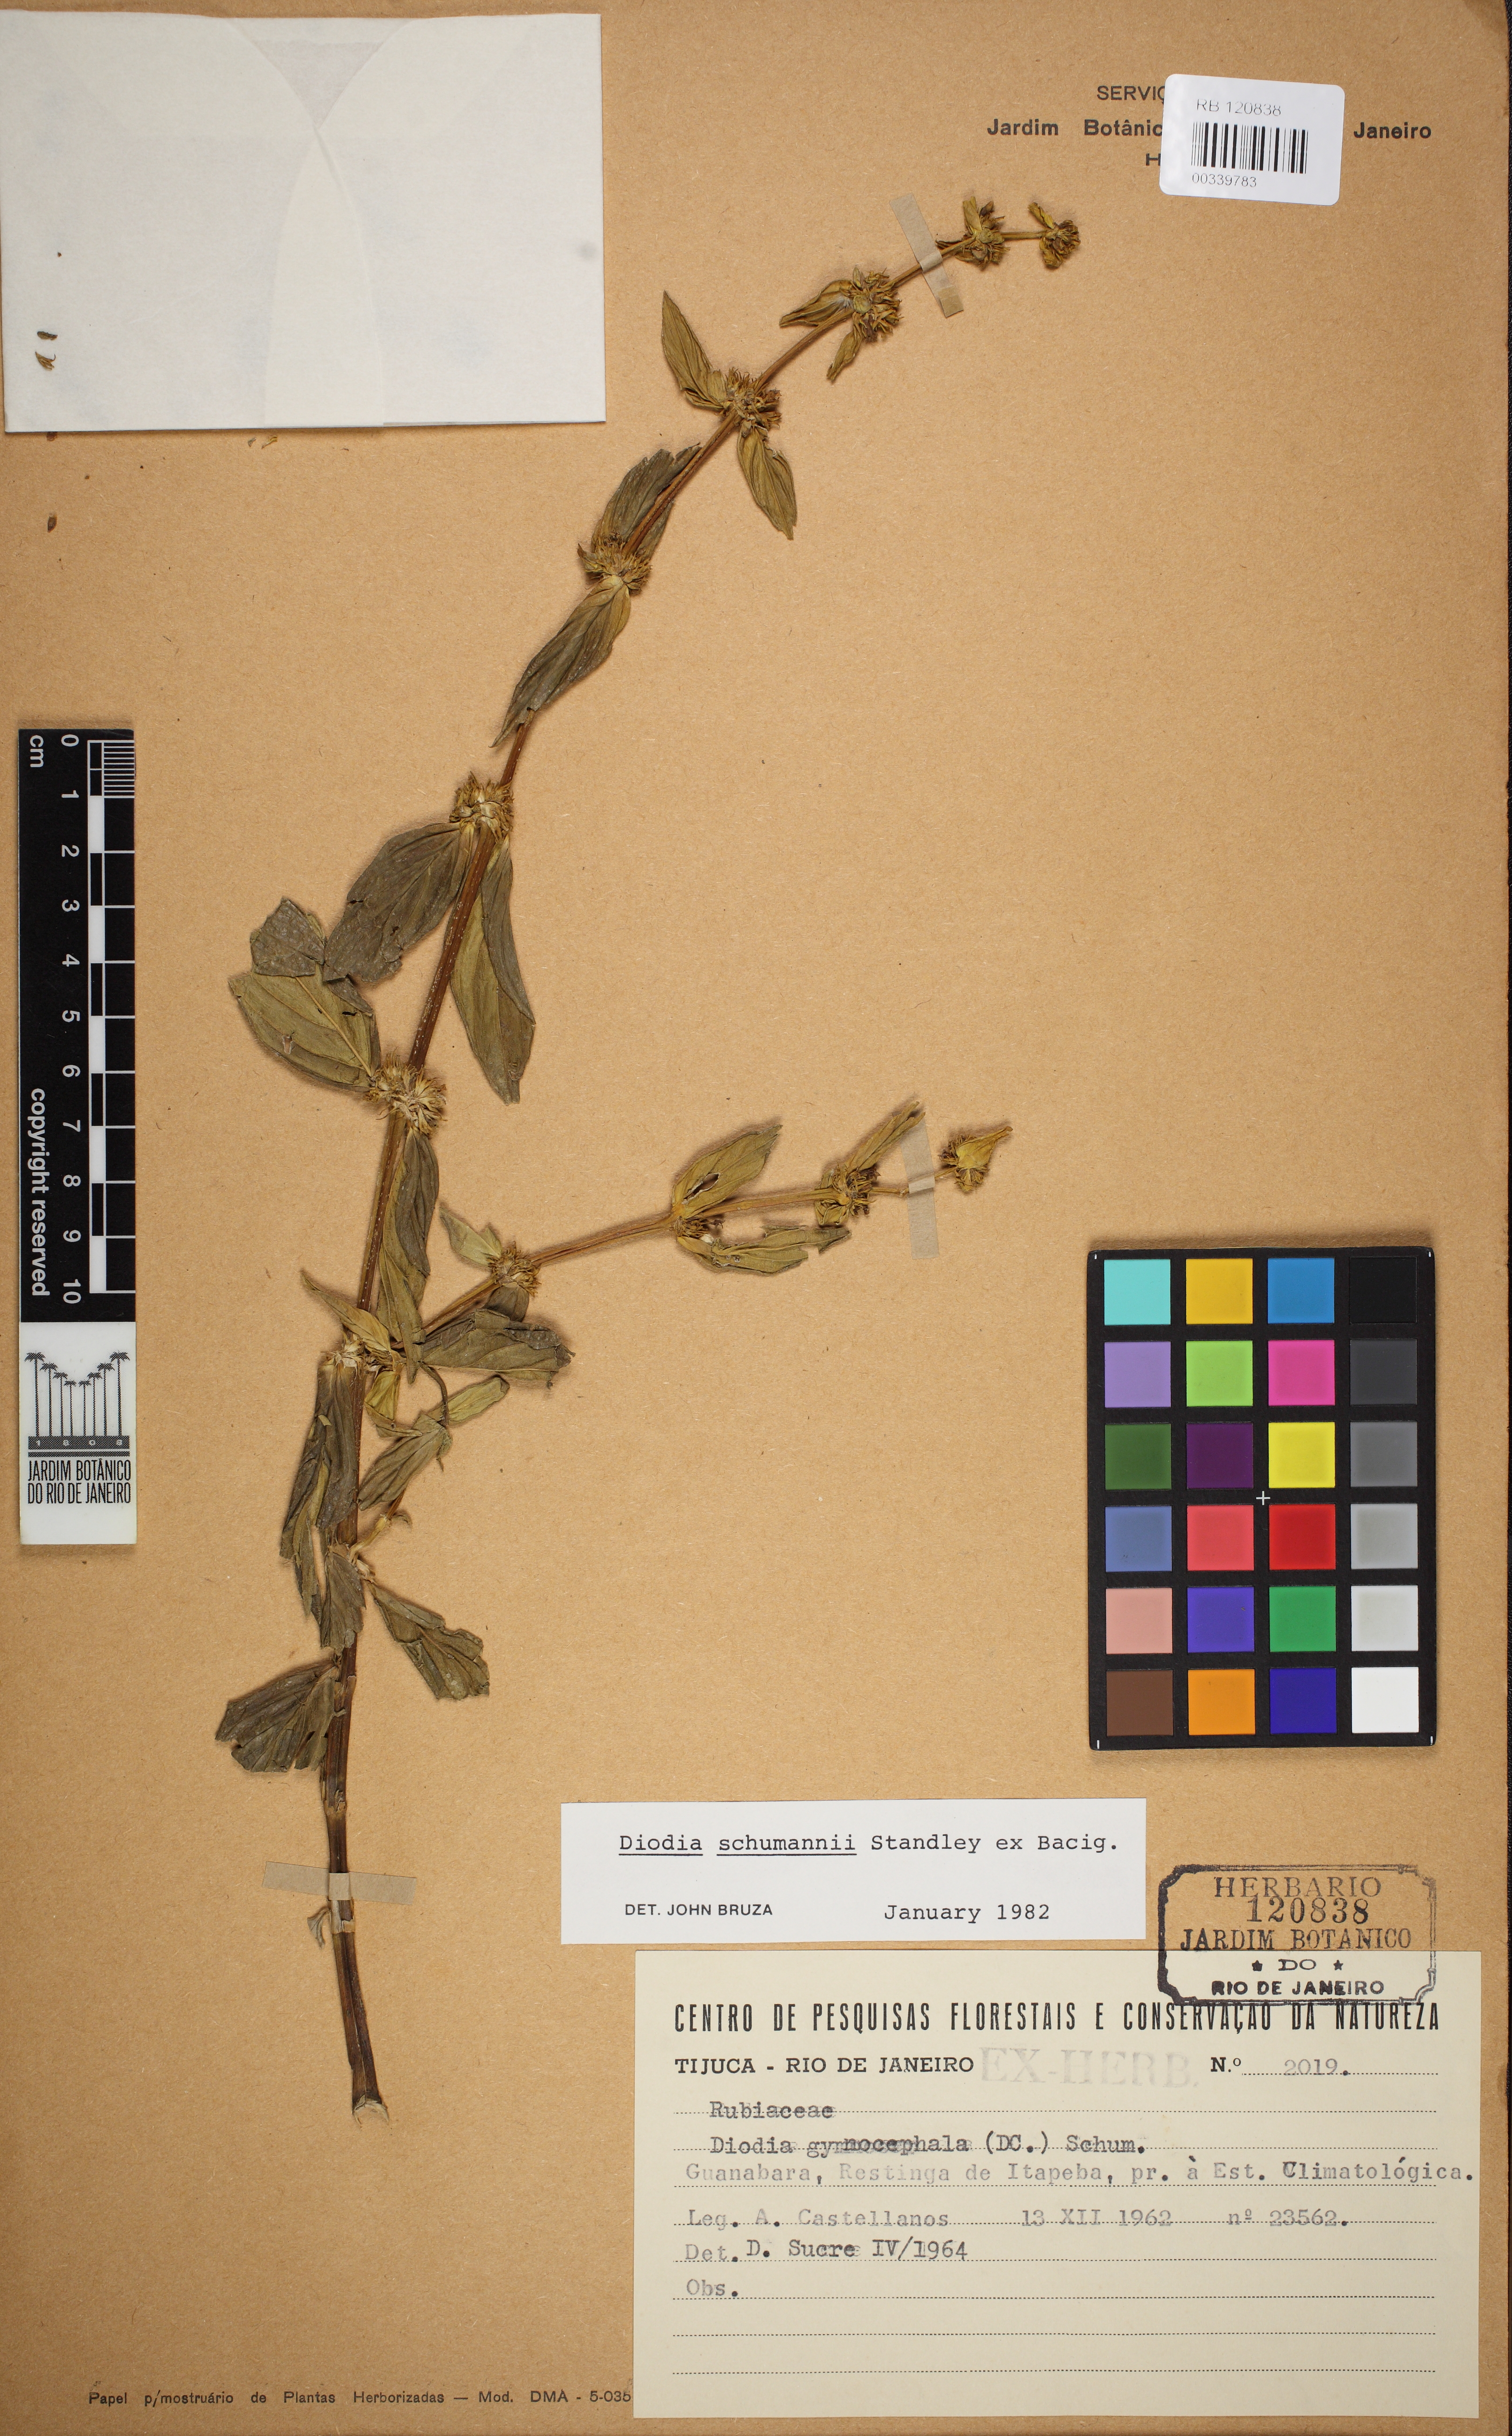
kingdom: Plantae
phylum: Tracheophyta
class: Magnoliopsida
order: Gentianales
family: Rubiaceae
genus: Spermacoce
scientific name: Spermacoce schumannii
